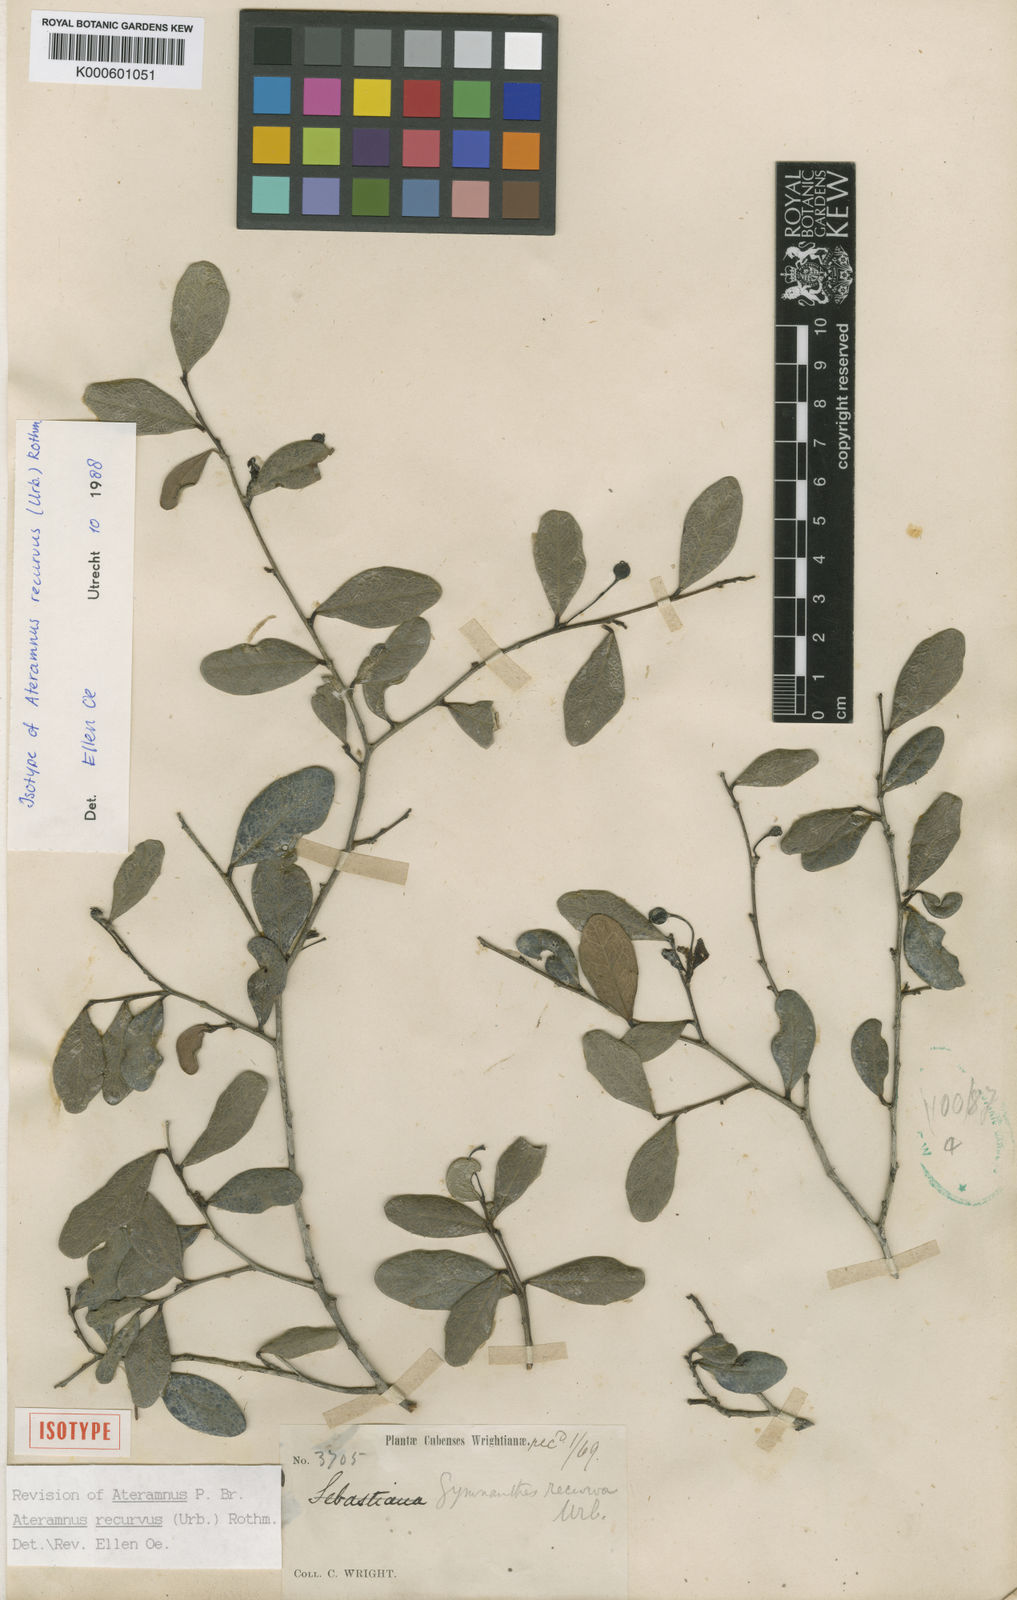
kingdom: Plantae
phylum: Tracheophyta
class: Magnoliopsida
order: Malpighiales
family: Euphorbiaceae
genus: Gymnanthes
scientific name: Gymnanthes recurva
